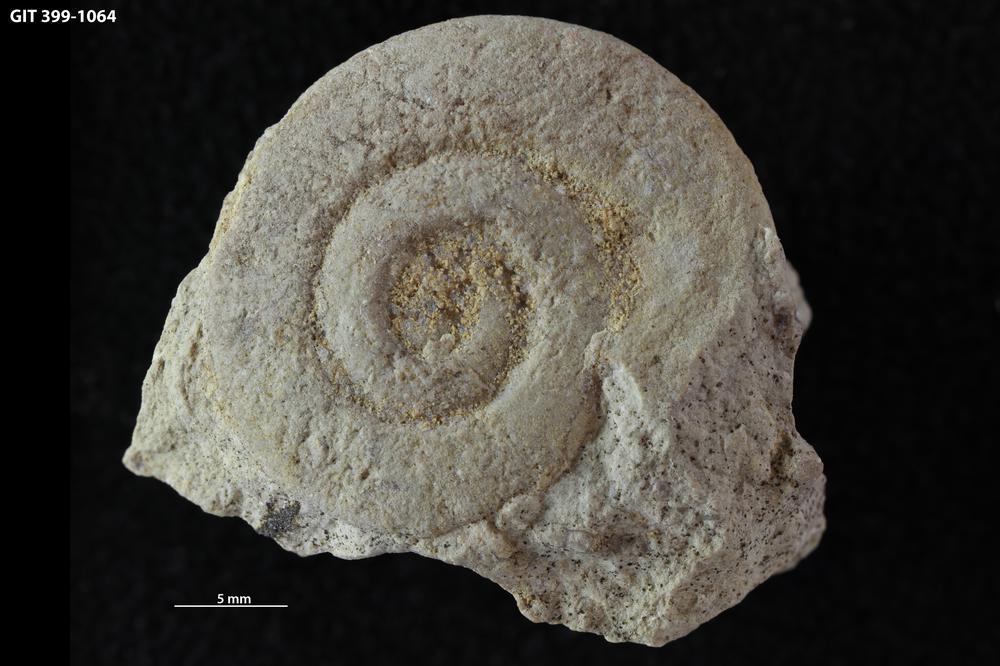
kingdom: Animalia
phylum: Mollusca
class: Gastropoda
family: Lesueurillidae
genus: Pararaphistoma
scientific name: Pararaphistoma
